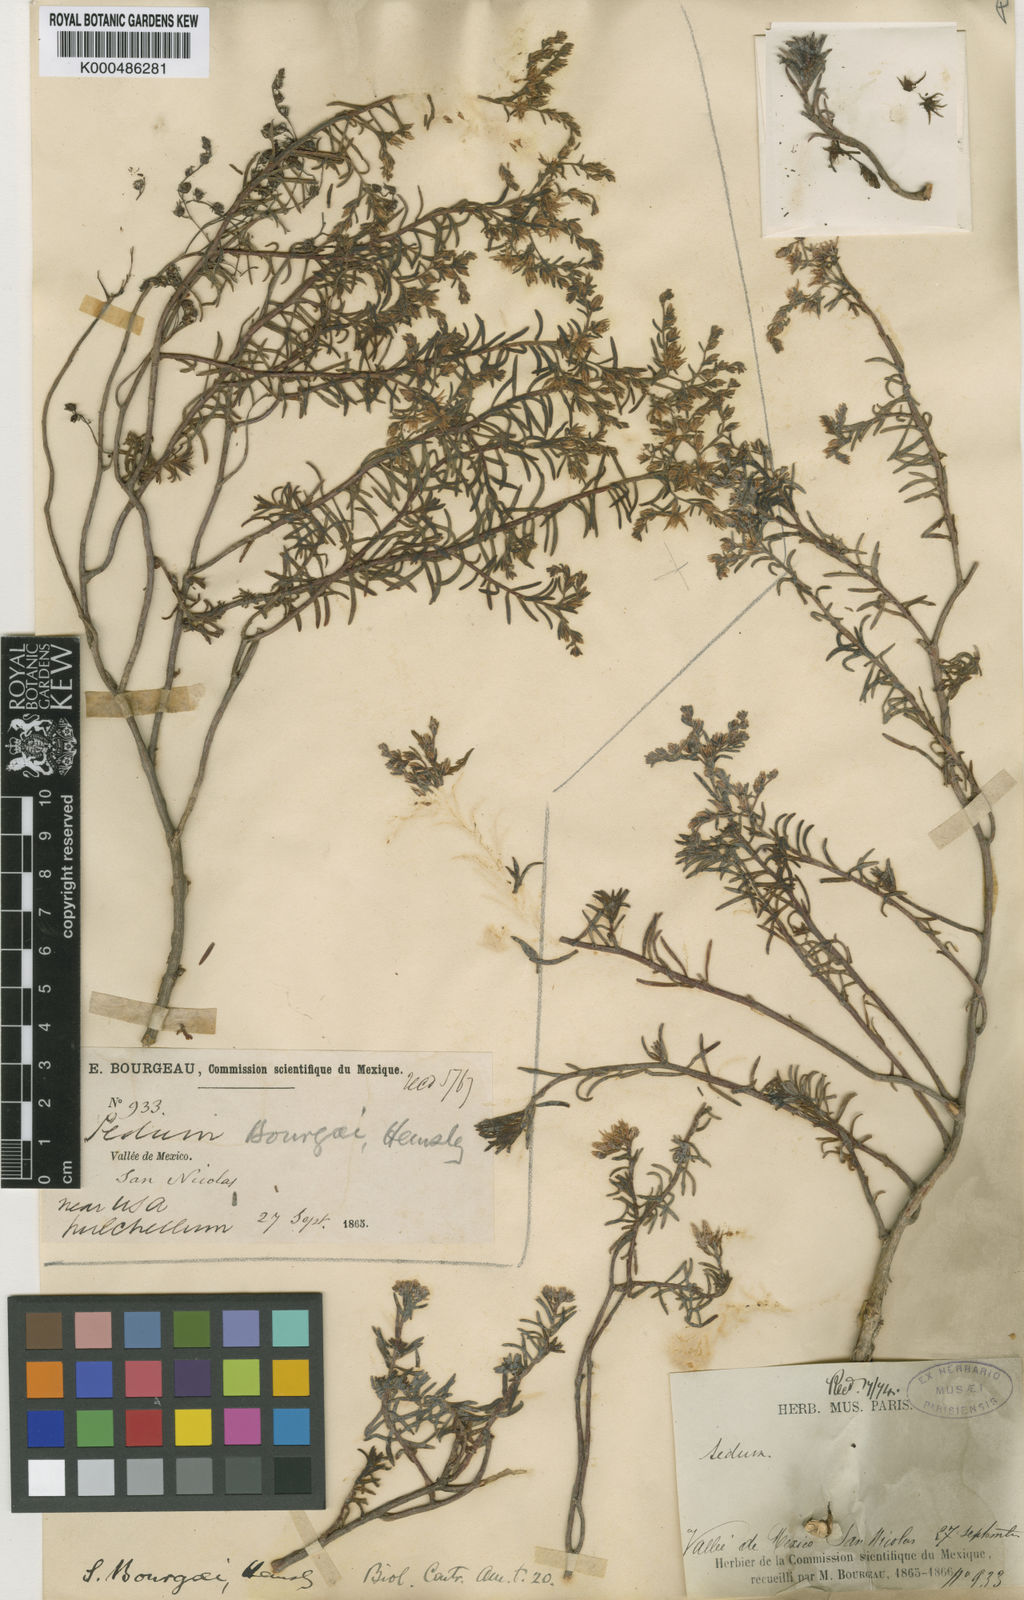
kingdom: Plantae
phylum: Tracheophyta
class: Magnoliopsida
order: Saxifragales
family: Crassulaceae
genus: Sedum
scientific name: Sedum bourgaei
